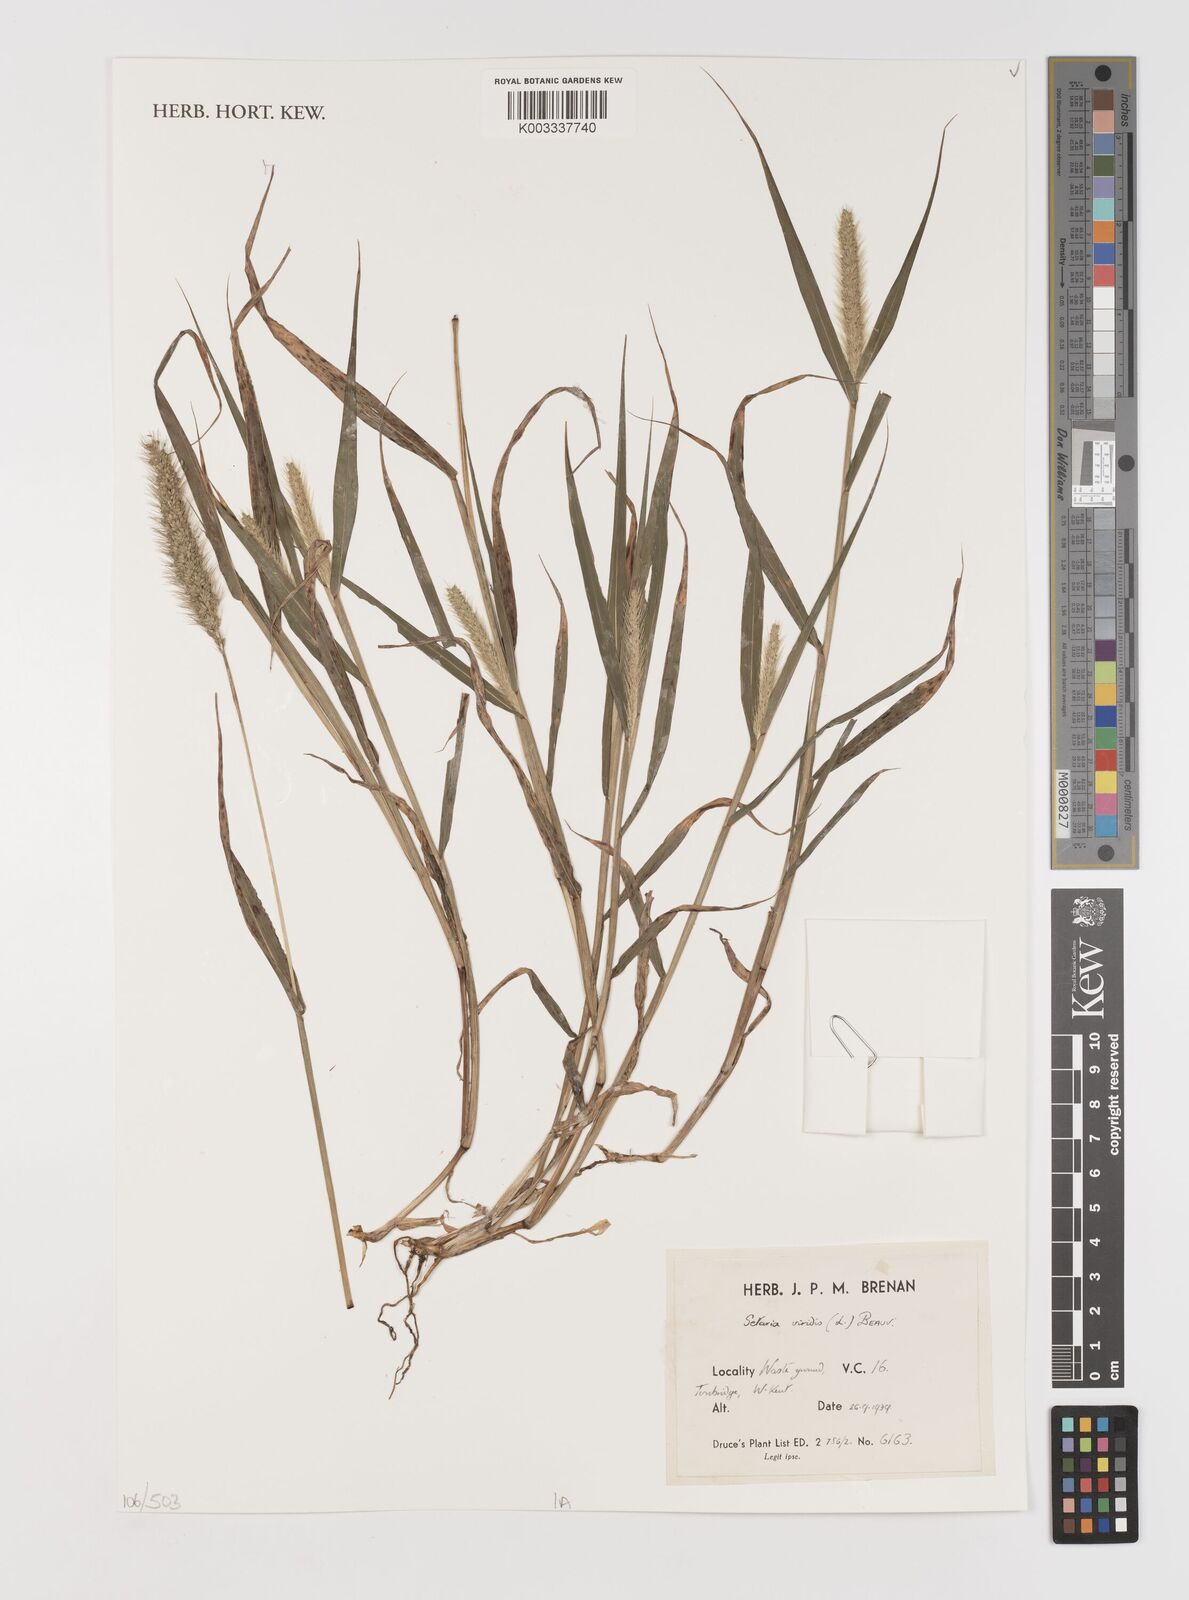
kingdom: Plantae
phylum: Tracheophyta
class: Liliopsida
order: Poales
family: Poaceae
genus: Setaria
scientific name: Setaria viridis
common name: Green bristlegrass
